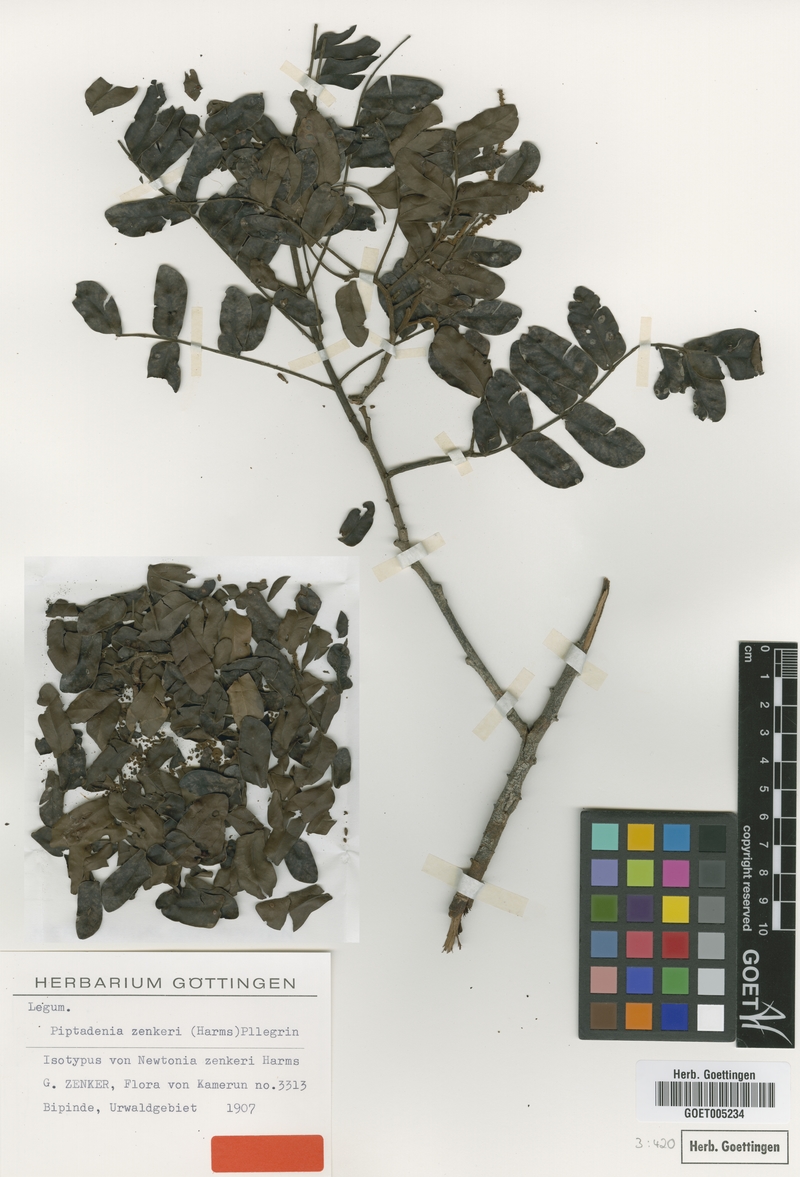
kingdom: Plantae
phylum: Tracheophyta
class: Magnoliopsida
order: Fabales
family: Fabaceae
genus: Newtonia
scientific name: Newtonia zenkeri
